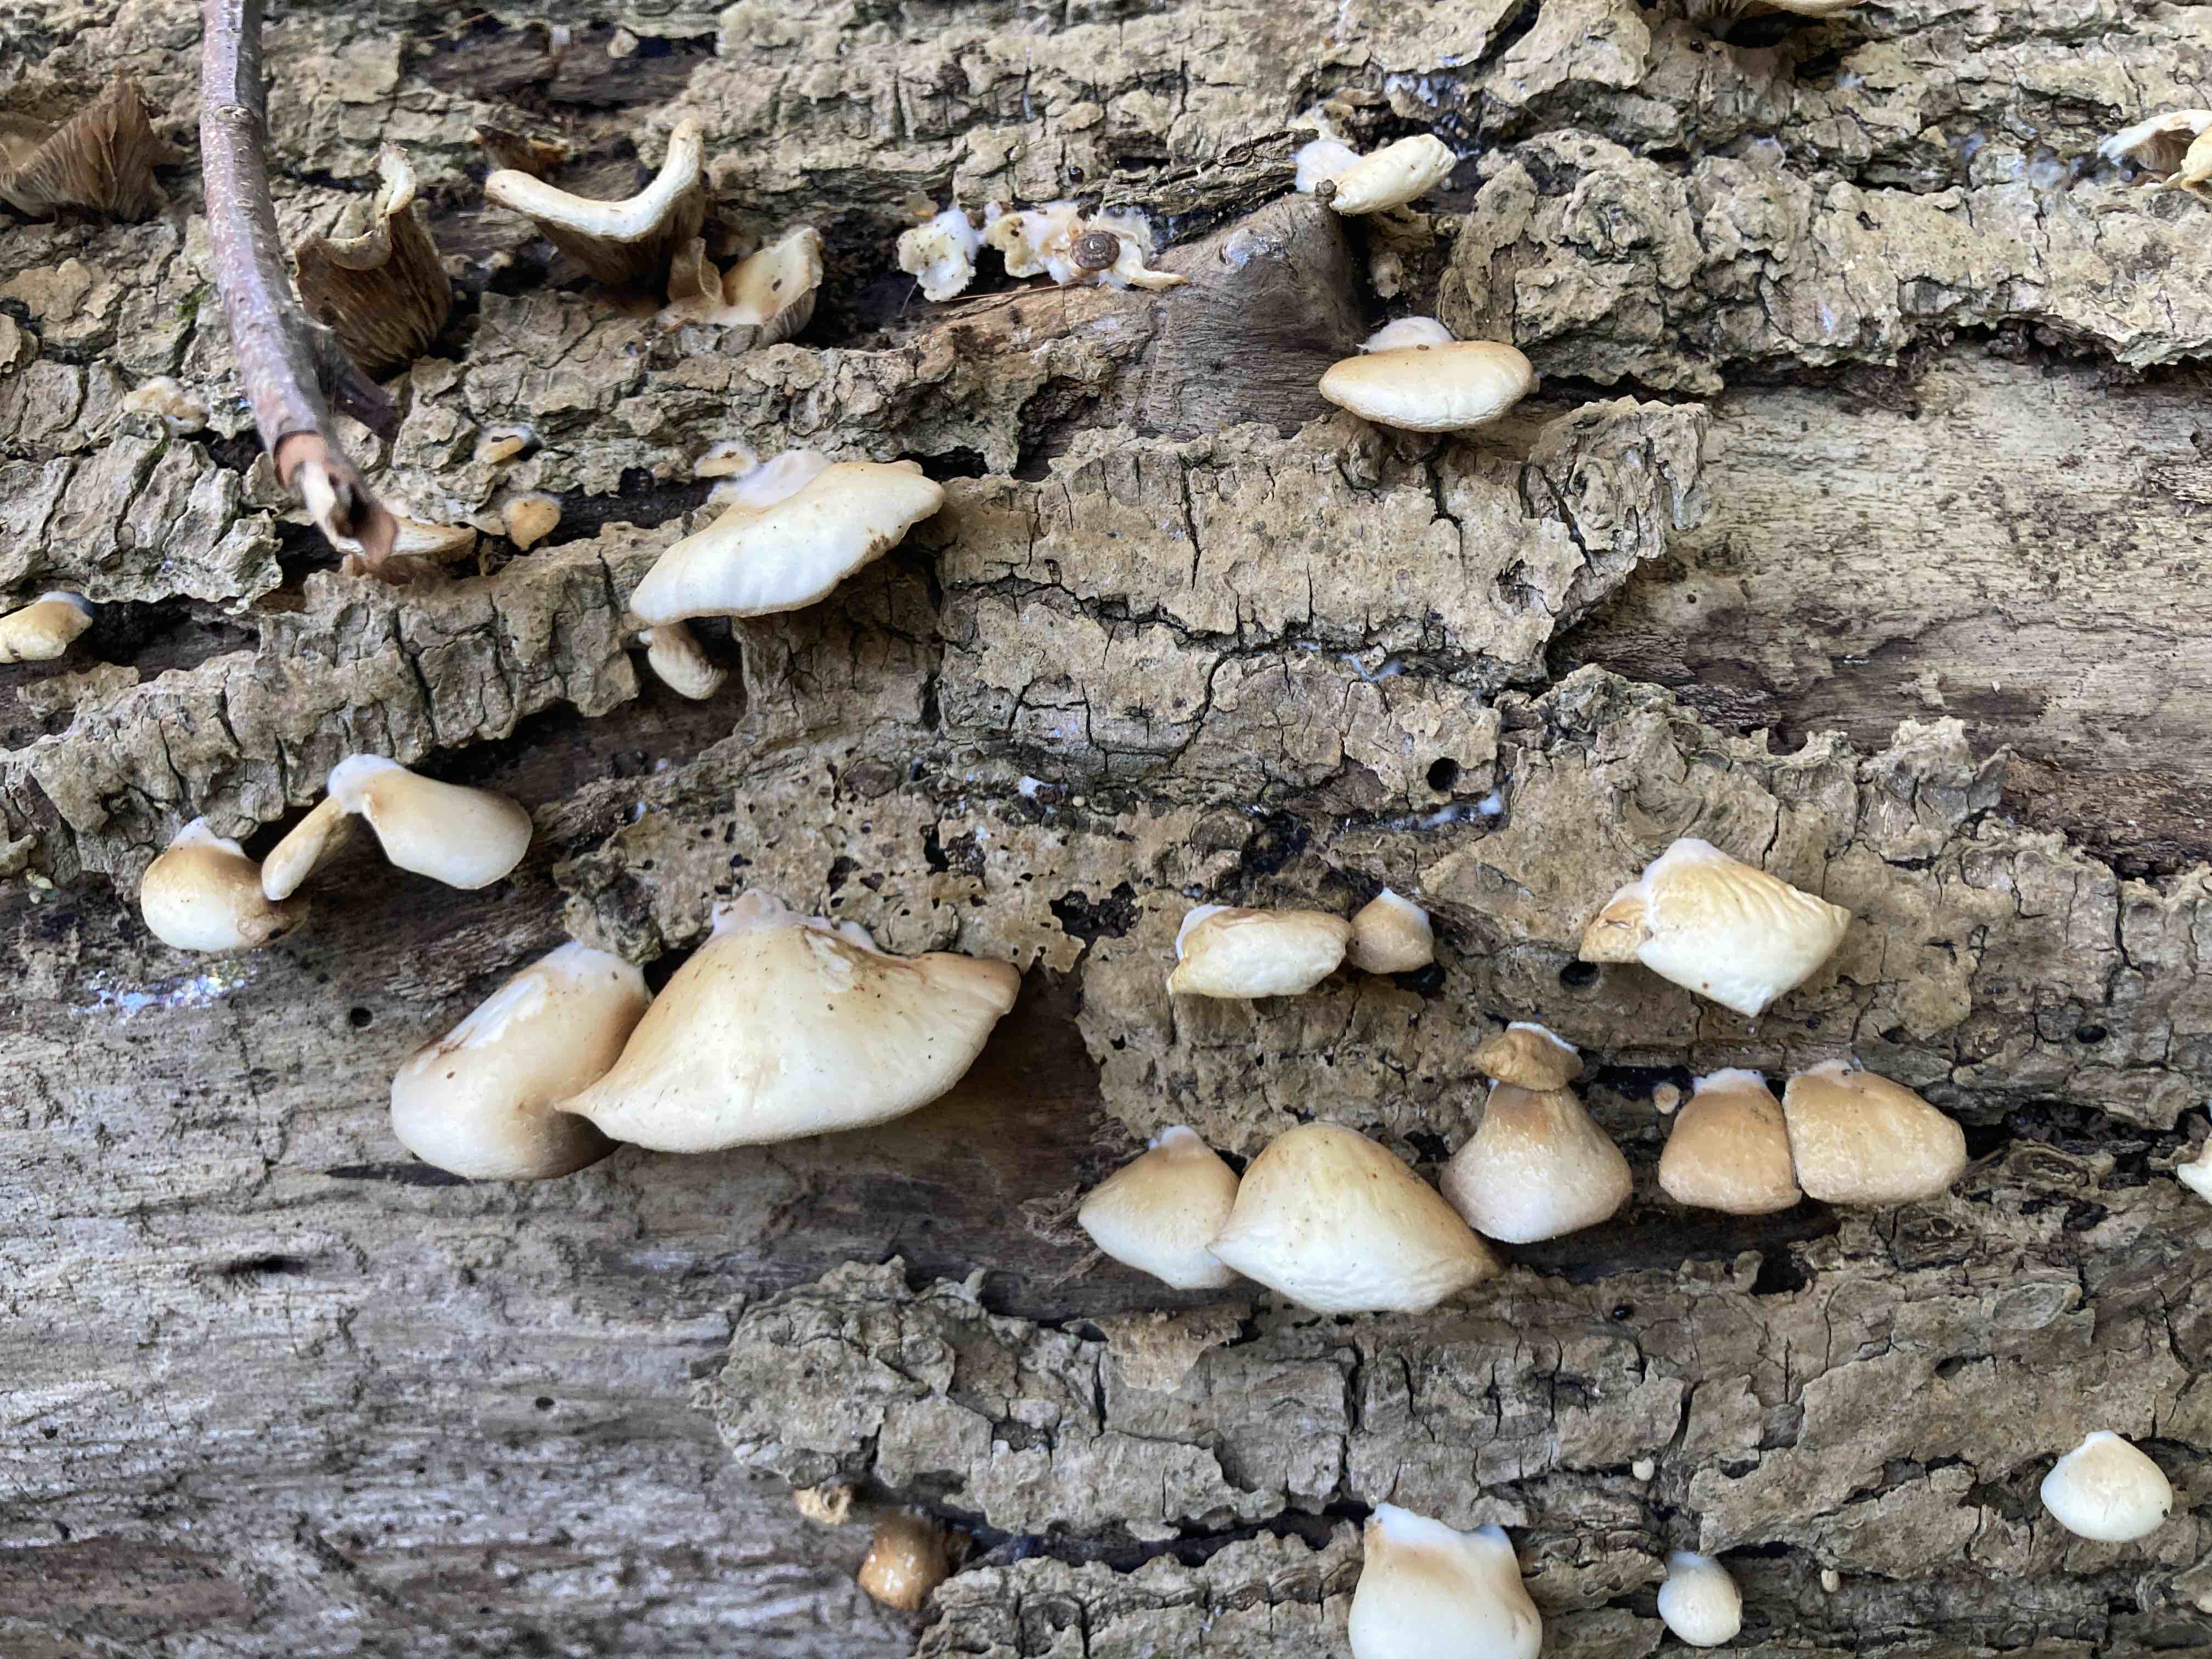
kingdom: Fungi
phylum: Basidiomycota
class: Agaricomycetes
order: Agaricales
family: Crepidotaceae
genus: Crepidotus
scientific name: Crepidotus mollis
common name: blød muslingesvamp
